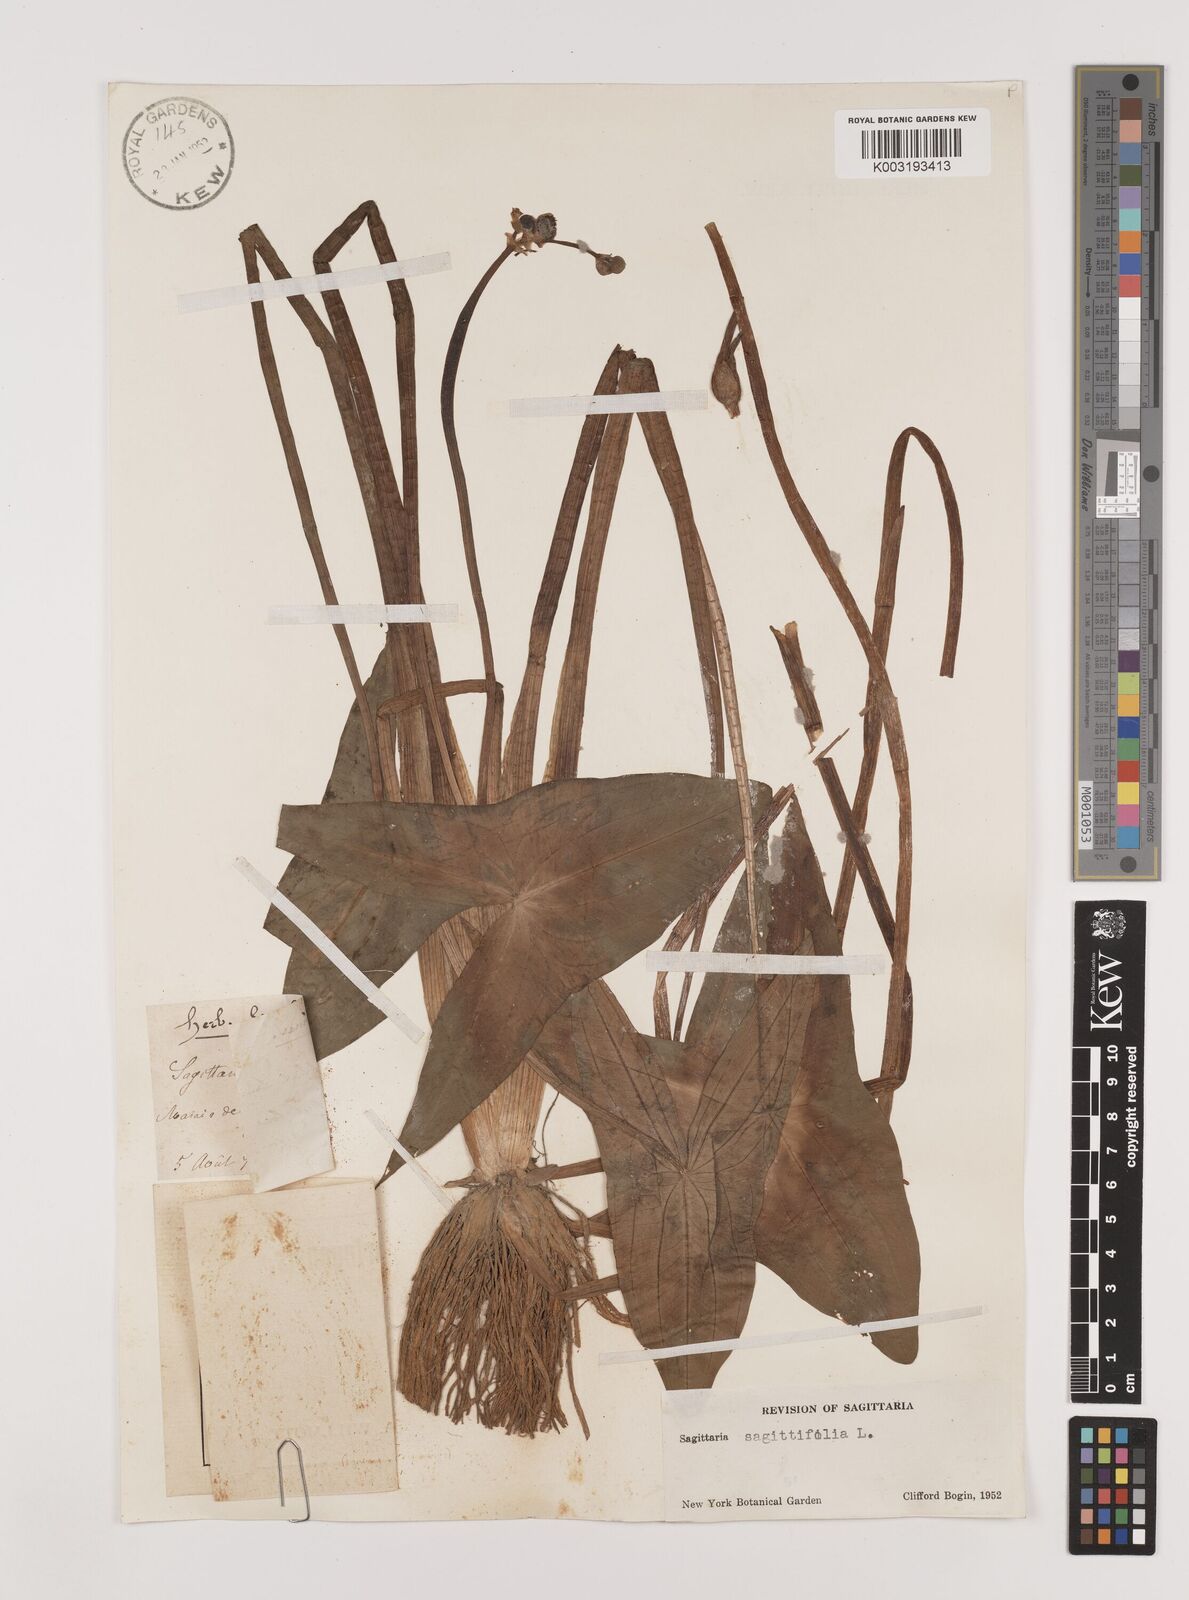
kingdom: Plantae
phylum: Tracheophyta
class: Liliopsida
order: Alismatales
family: Alismataceae
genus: Sagittaria
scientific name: Sagittaria sagittifolia
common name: Arrowhead
